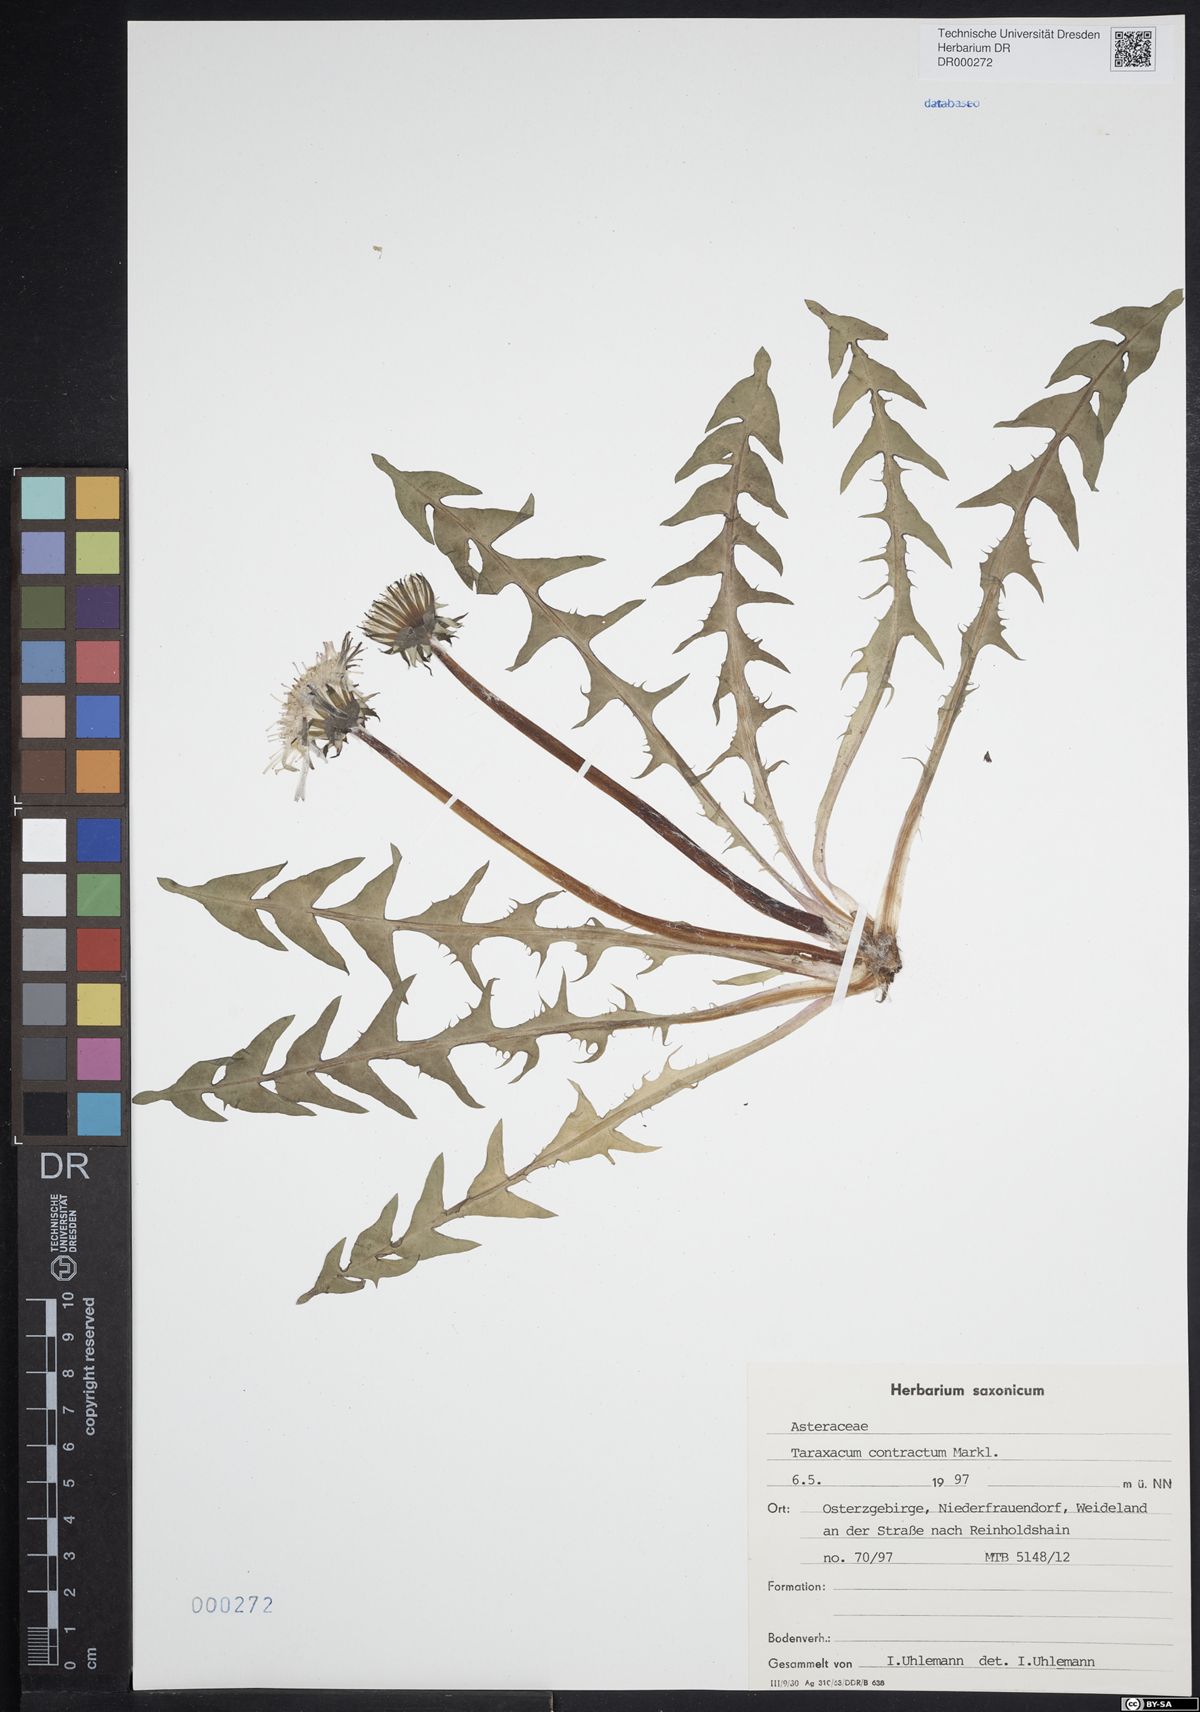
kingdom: Plantae
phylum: Tracheophyta
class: Magnoliopsida
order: Asterales
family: Asteraceae
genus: Taraxacum
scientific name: Taraxacum contractum
